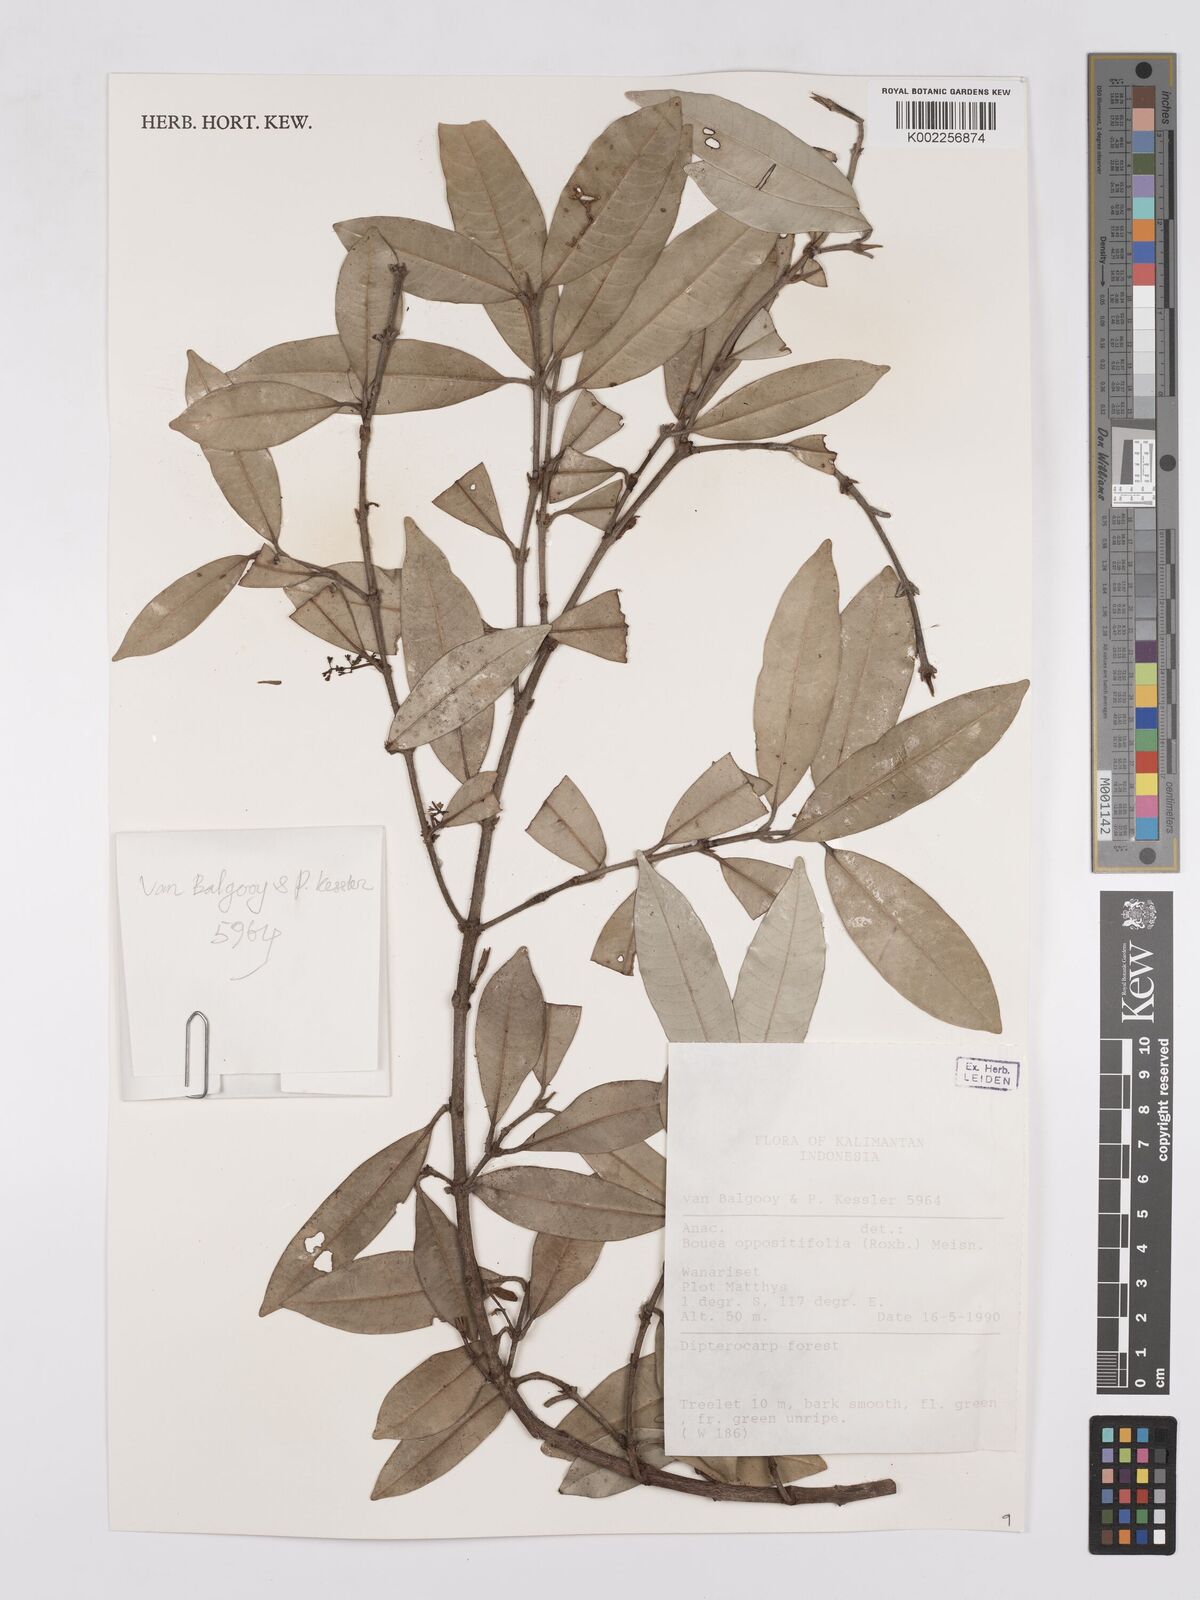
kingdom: Plantae
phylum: Tracheophyta
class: Magnoliopsida
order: Sapindales
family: Anacardiaceae
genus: Bouea
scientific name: Bouea oppositifolia
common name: Narrow-leaved kundang
